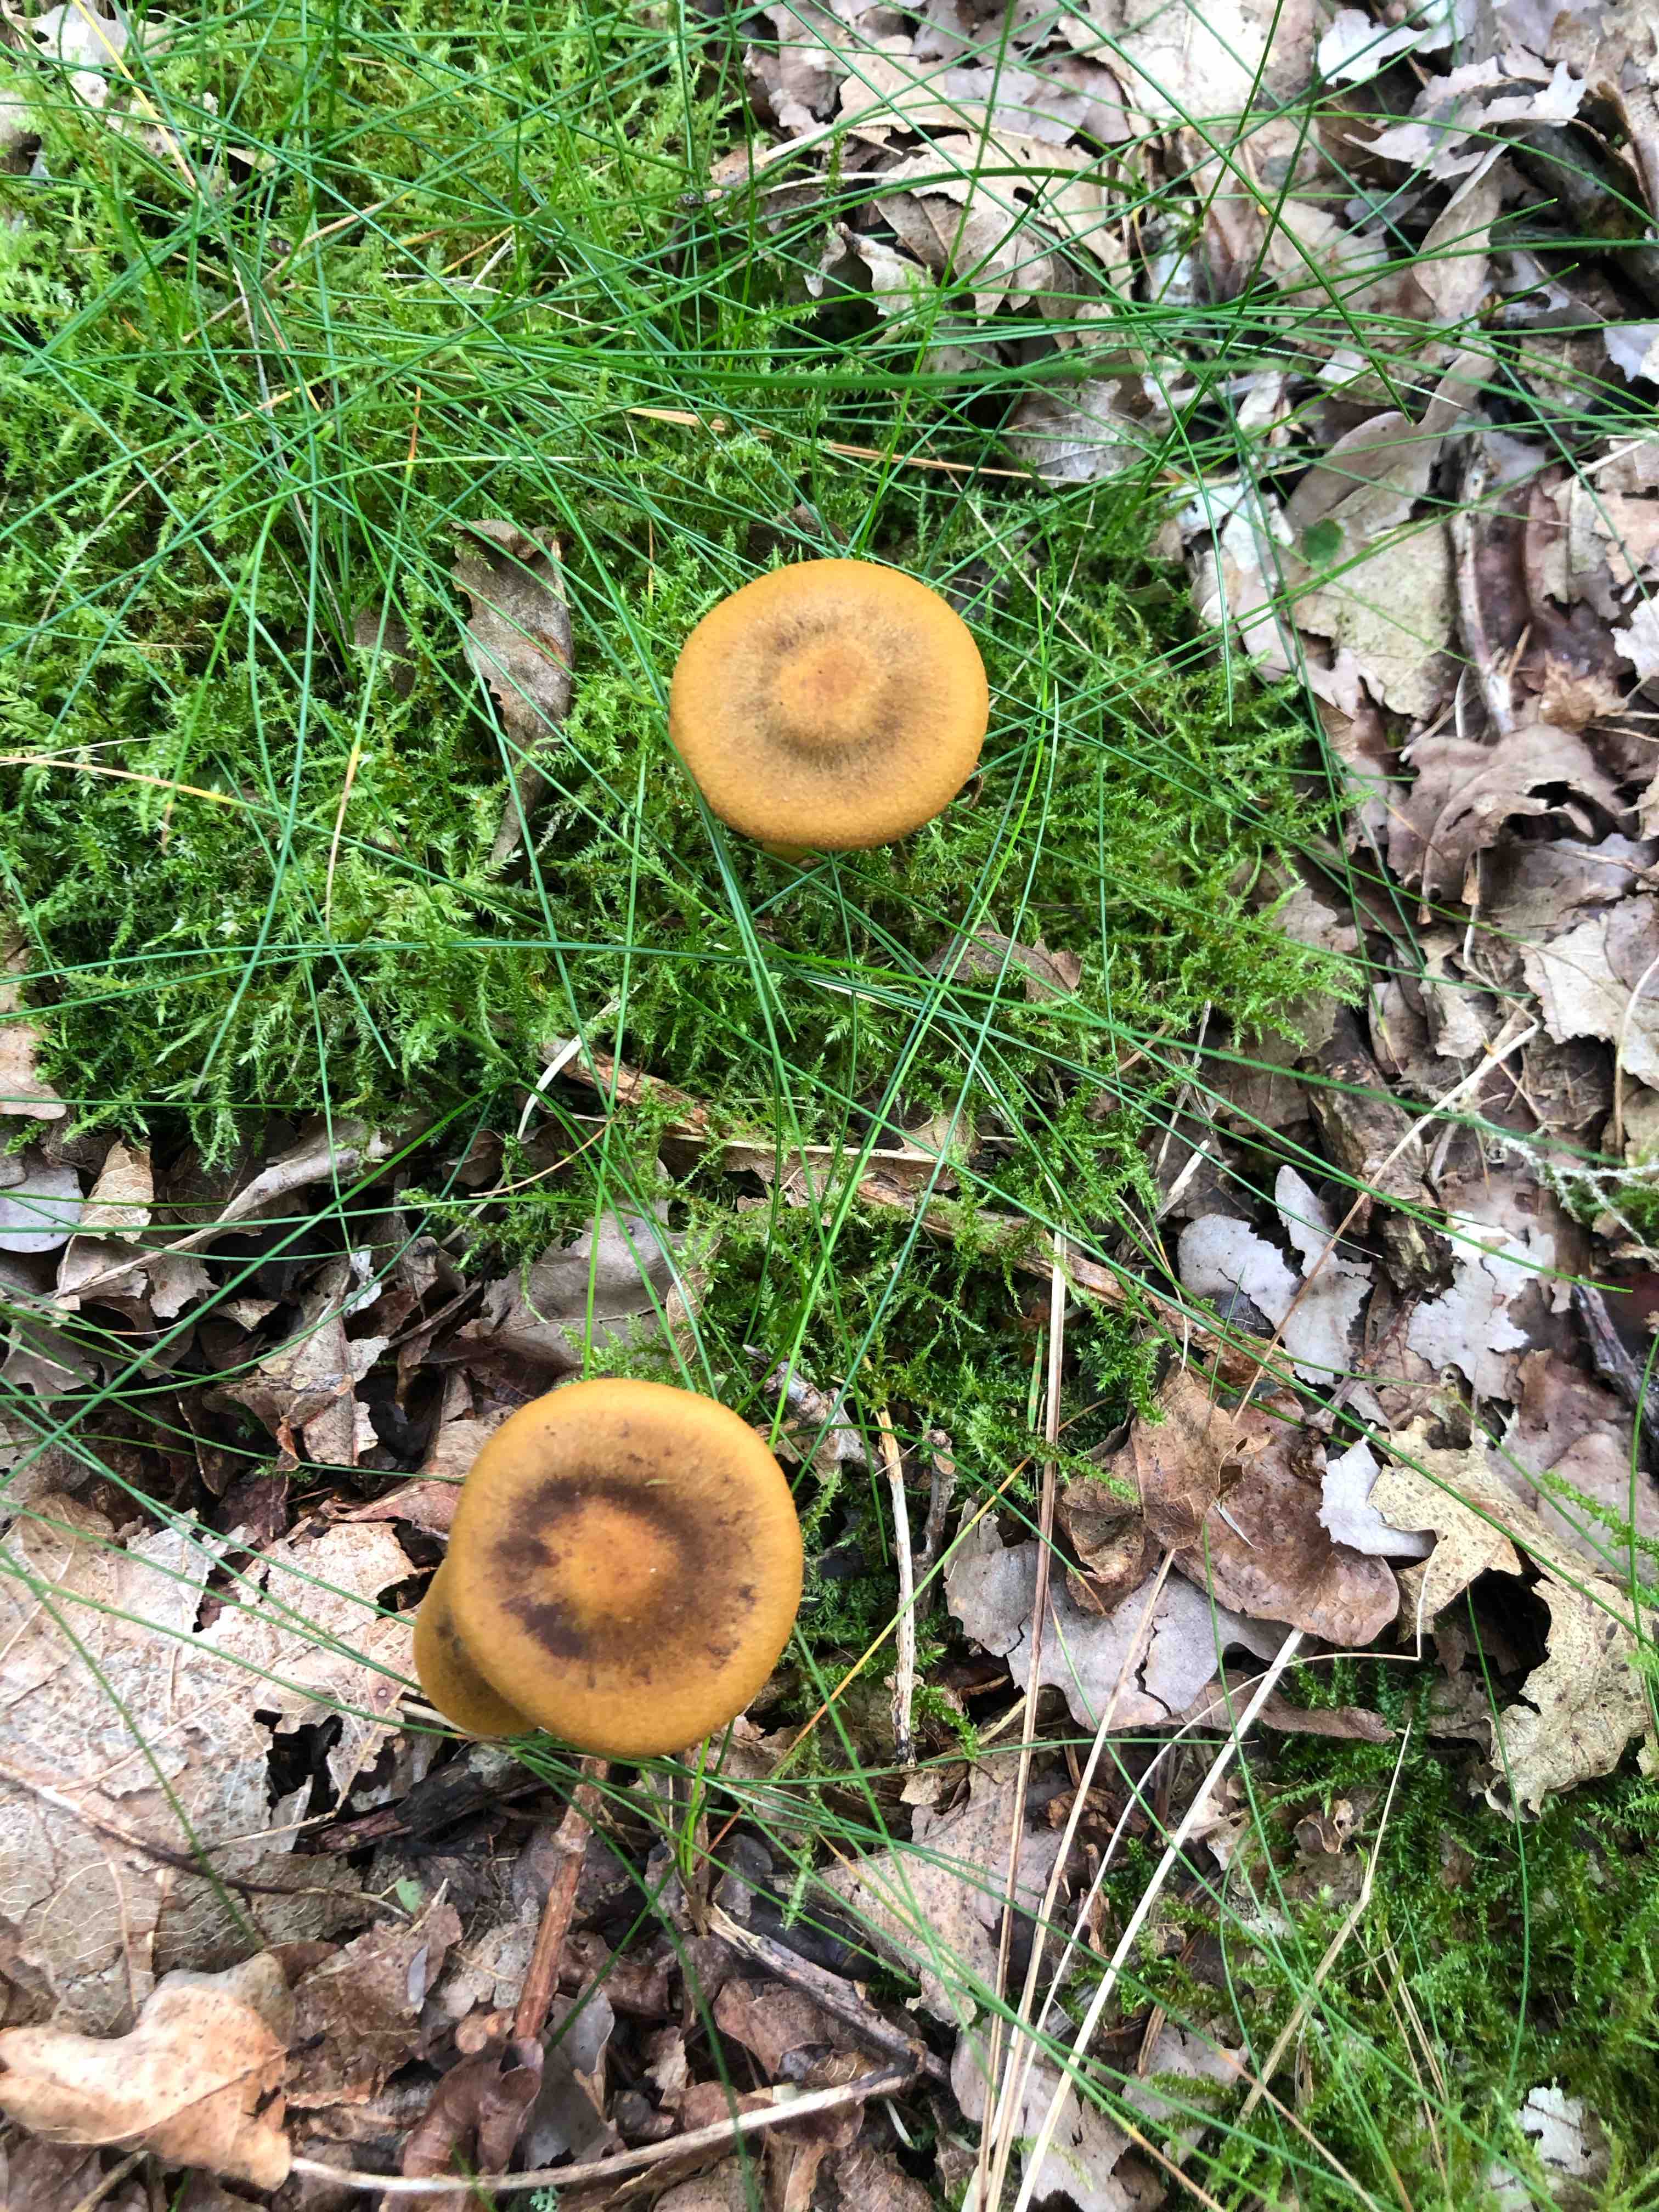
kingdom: Fungi
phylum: Basidiomycota
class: Agaricomycetes
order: Agaricales
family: Cortinariaceae
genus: Cortinarius
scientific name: Cortinarius
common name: cinnoberbladet slørhat
